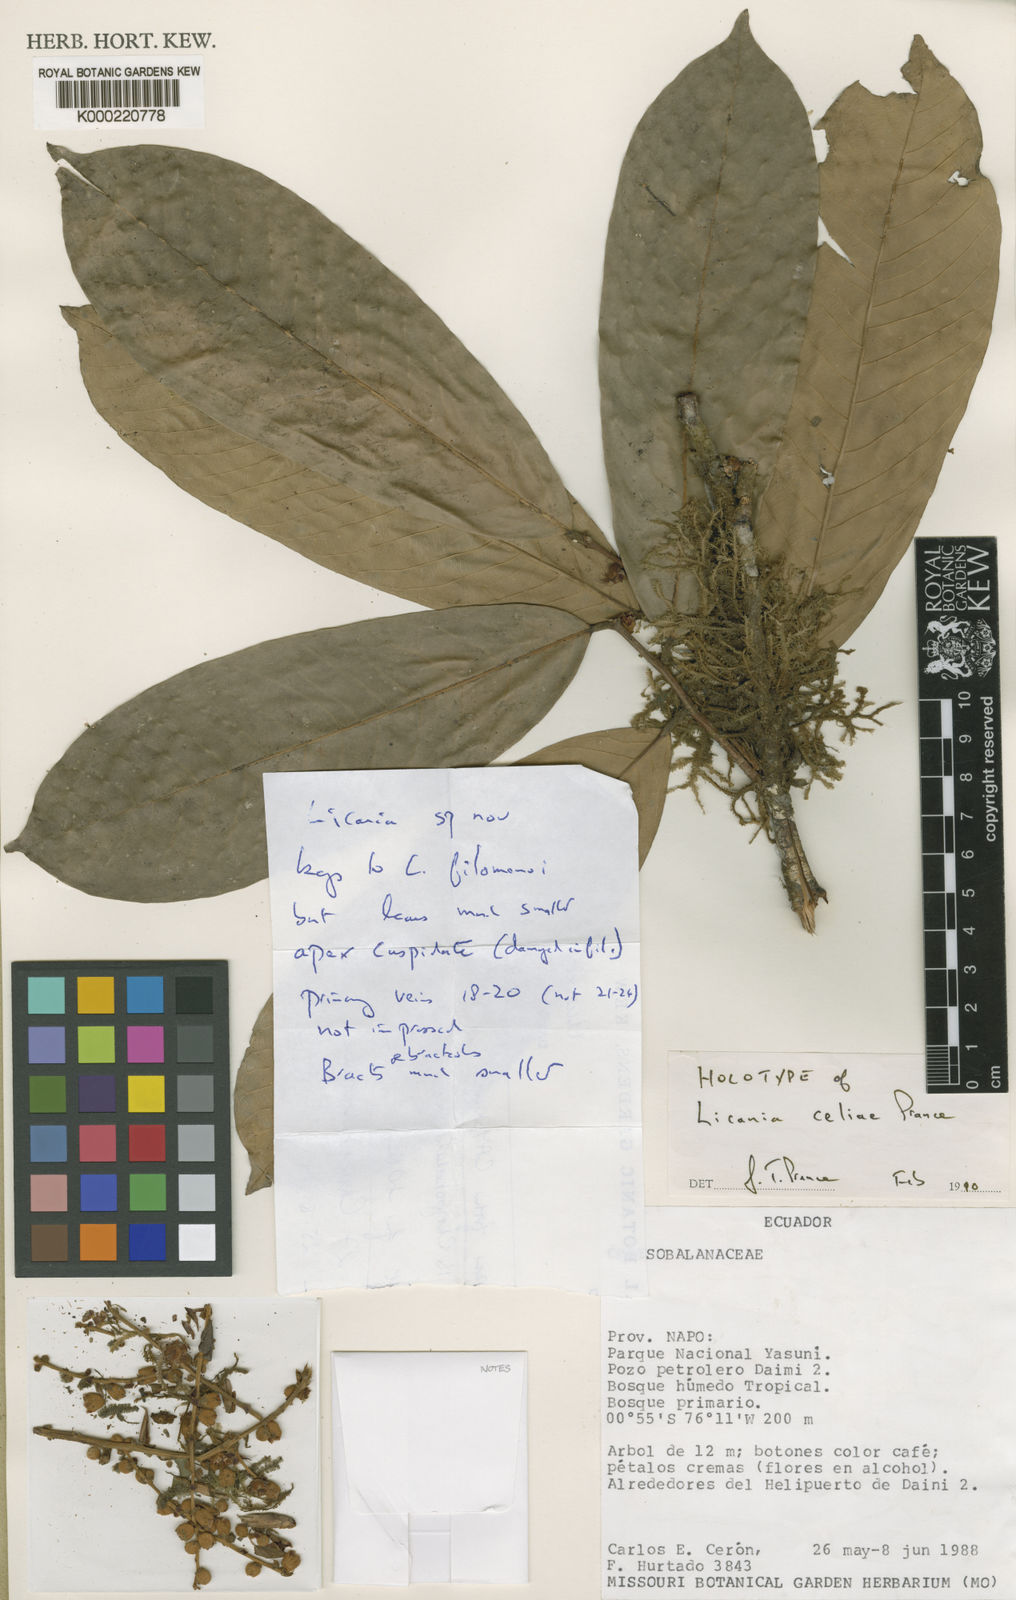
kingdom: Plantae
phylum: Tracheophyta
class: Magnoliopsida
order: Malpighiales
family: Chrysobalanaceae
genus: Moquilea
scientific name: Moquilea celiae
